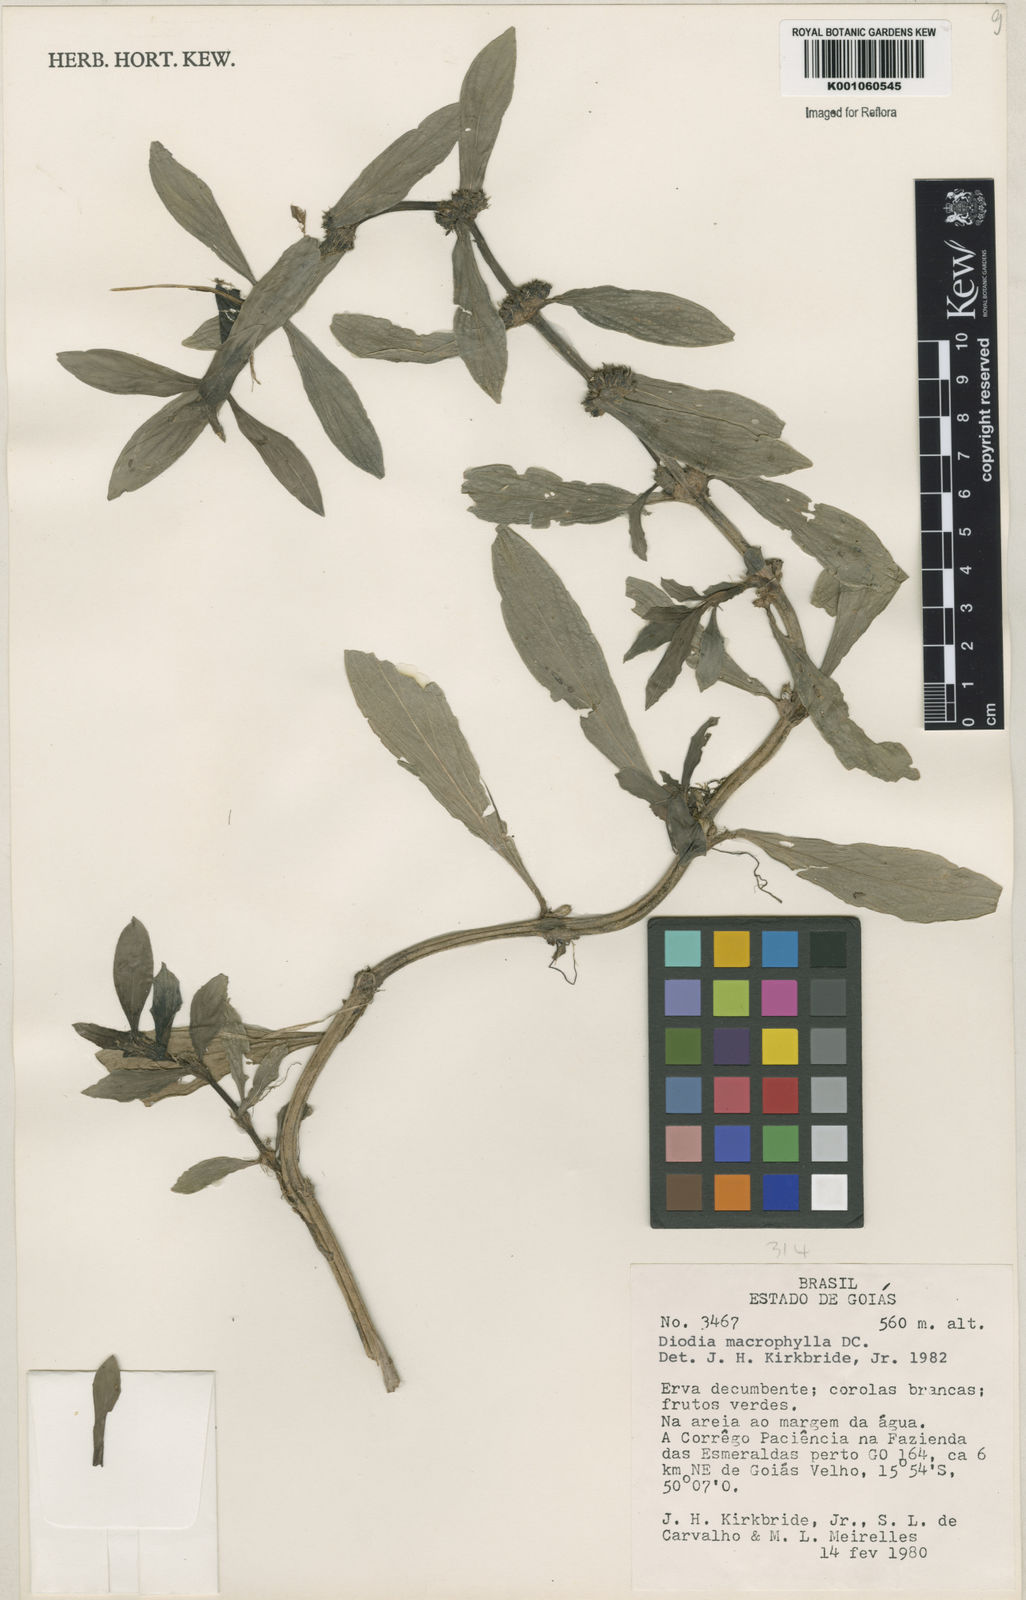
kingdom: Plantae
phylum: Tracheophyta
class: Magnoliopsida
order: Gentianales
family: Rubiaceae
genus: Diodia
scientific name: Diodia macrophylla
